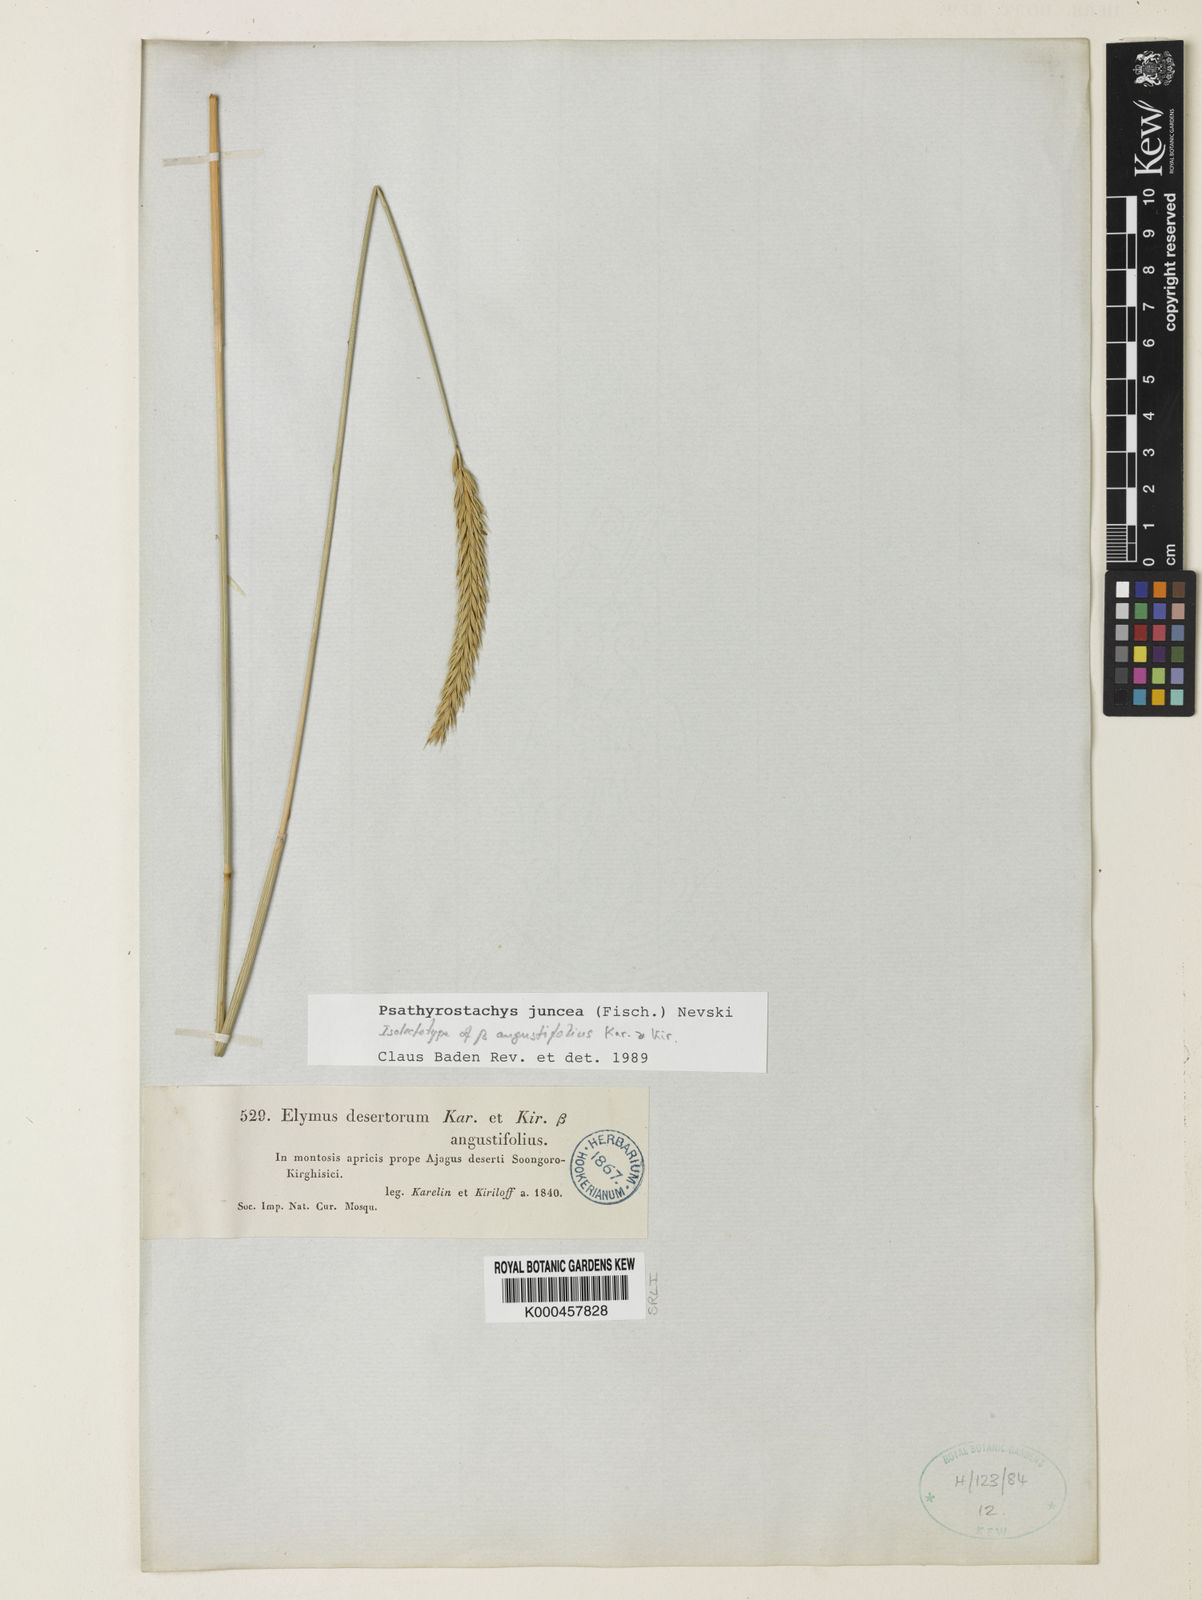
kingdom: Plantae
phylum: Tracheophyta
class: Liliopsida
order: Poales
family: Poaceae
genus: Psathyrostachys
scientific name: Psathyrostachys juncea
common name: Russian wildrye
